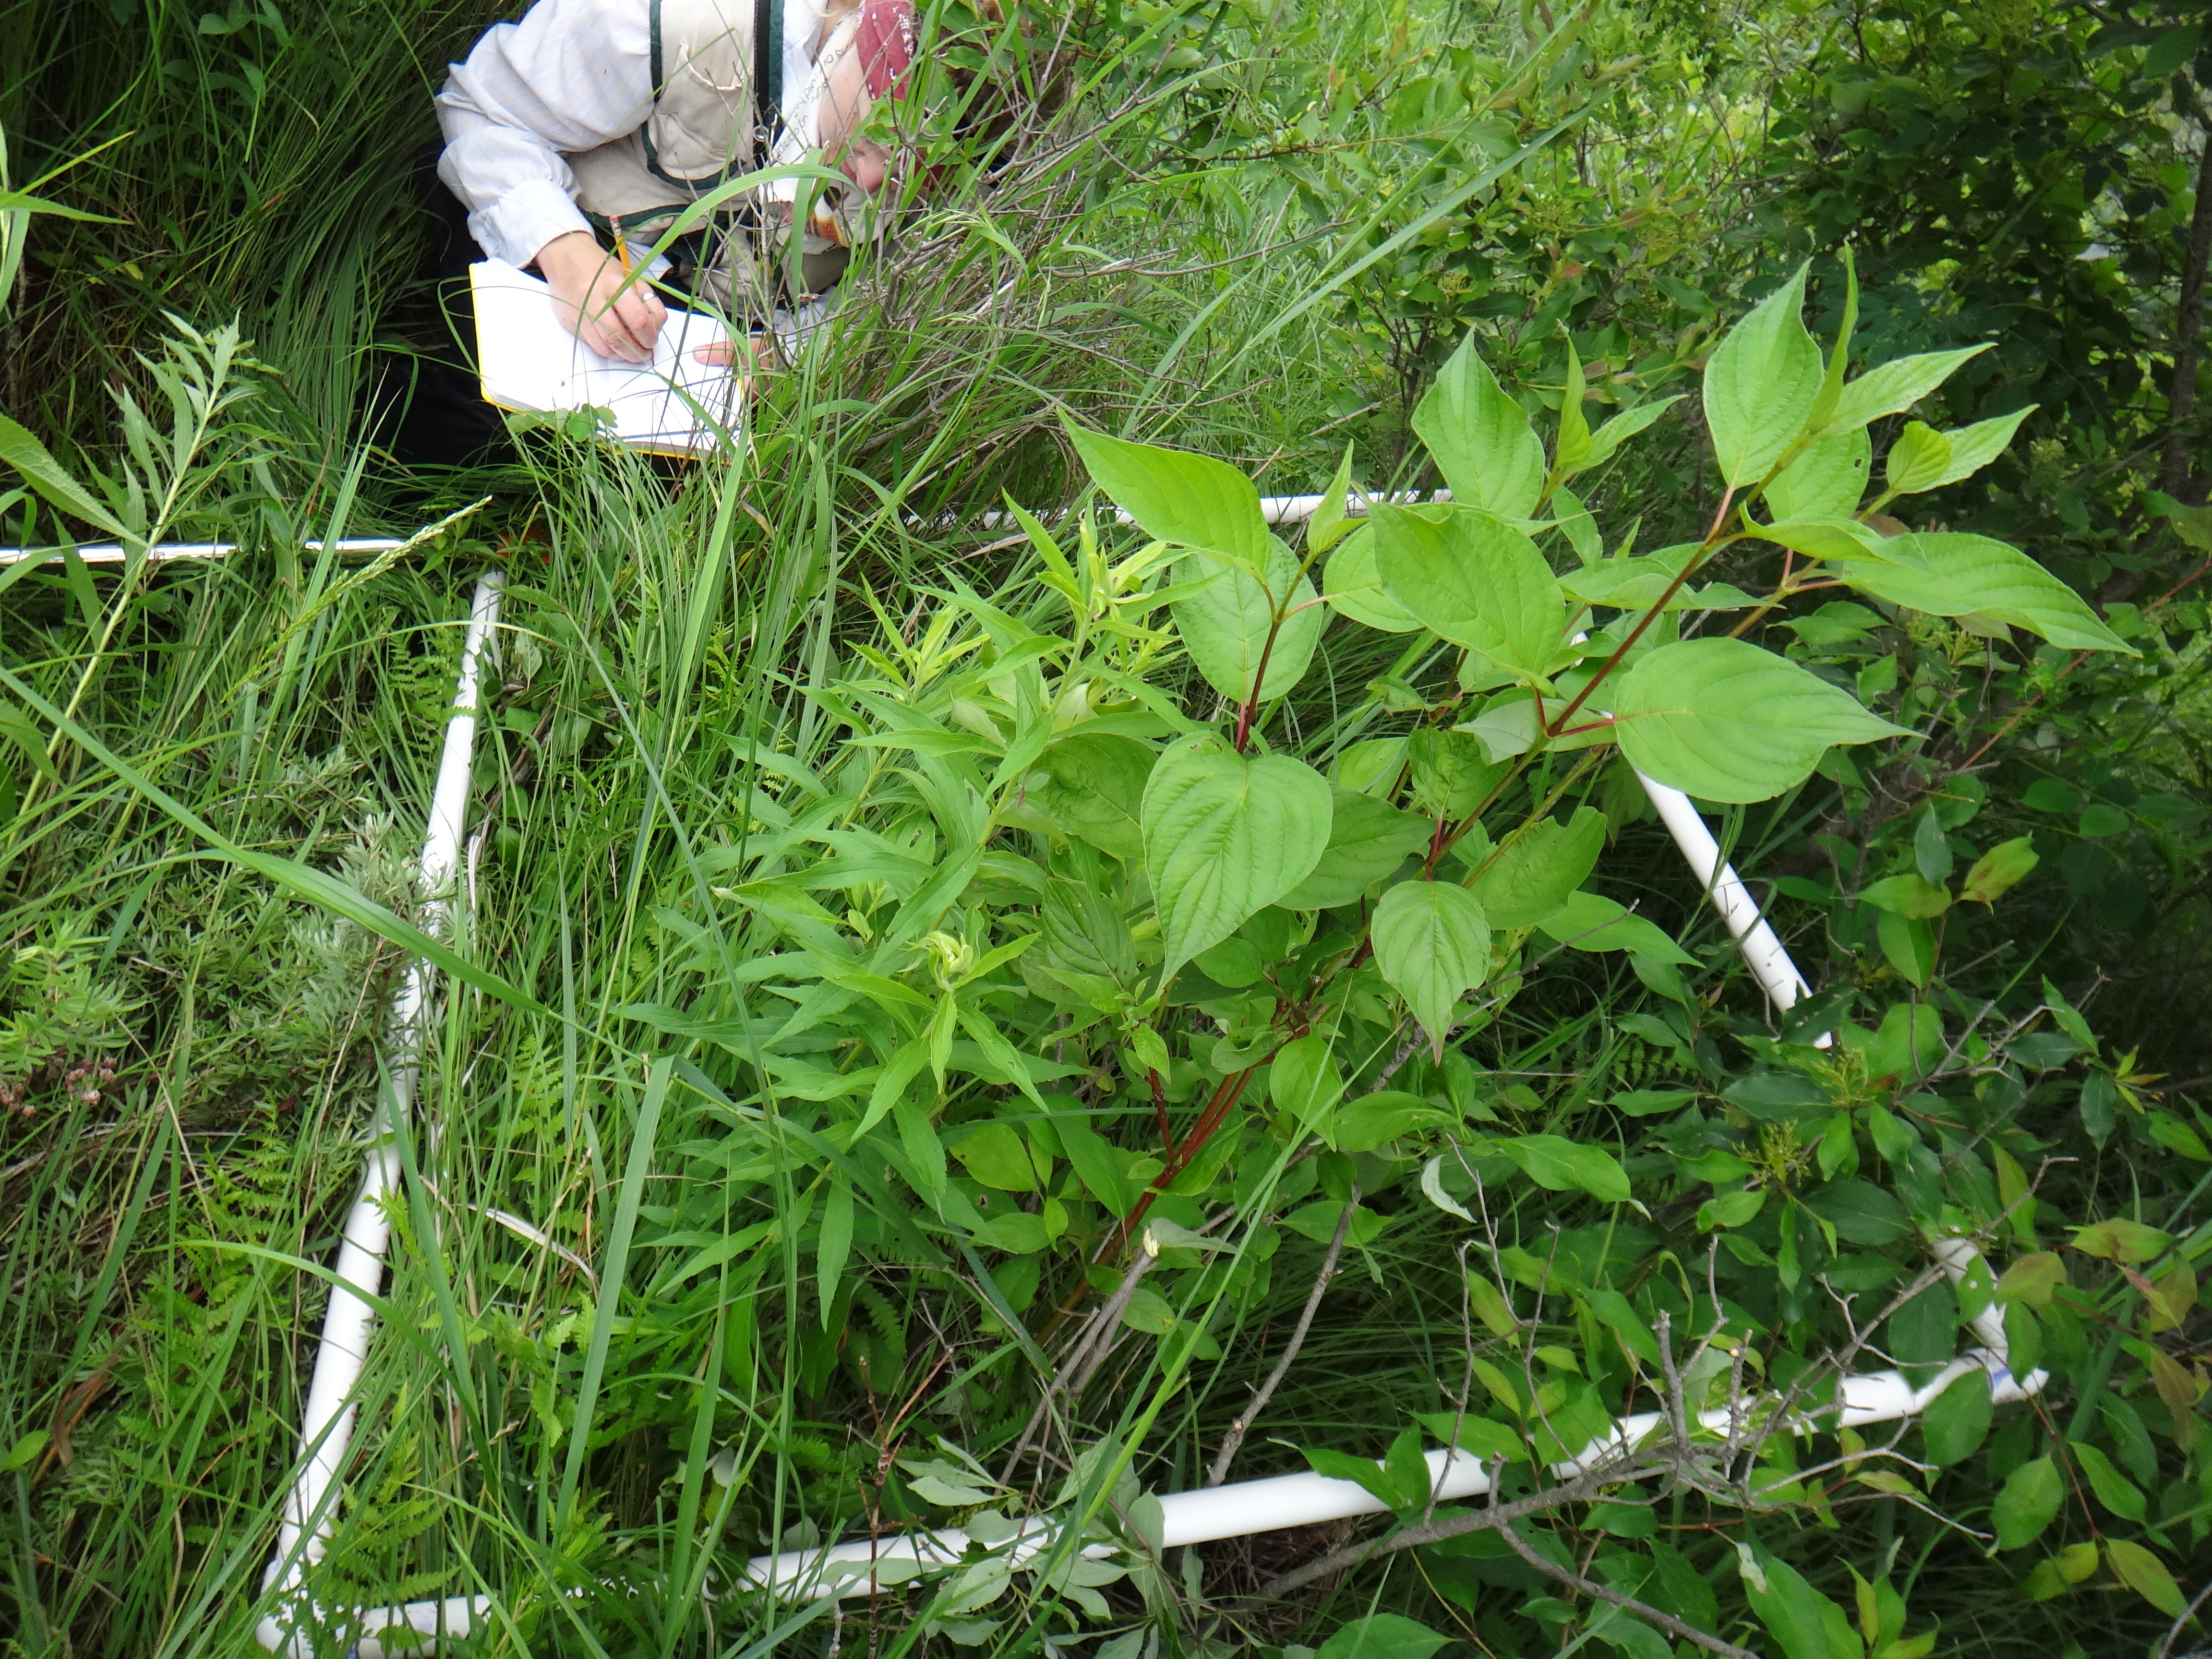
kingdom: Plantae
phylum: Tracheophyta
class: Magnoliopsida
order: Rosales
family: Rosaceae
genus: Dasiphora
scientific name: Dasiphora fruticosa
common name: Shrubby cinquefoil
